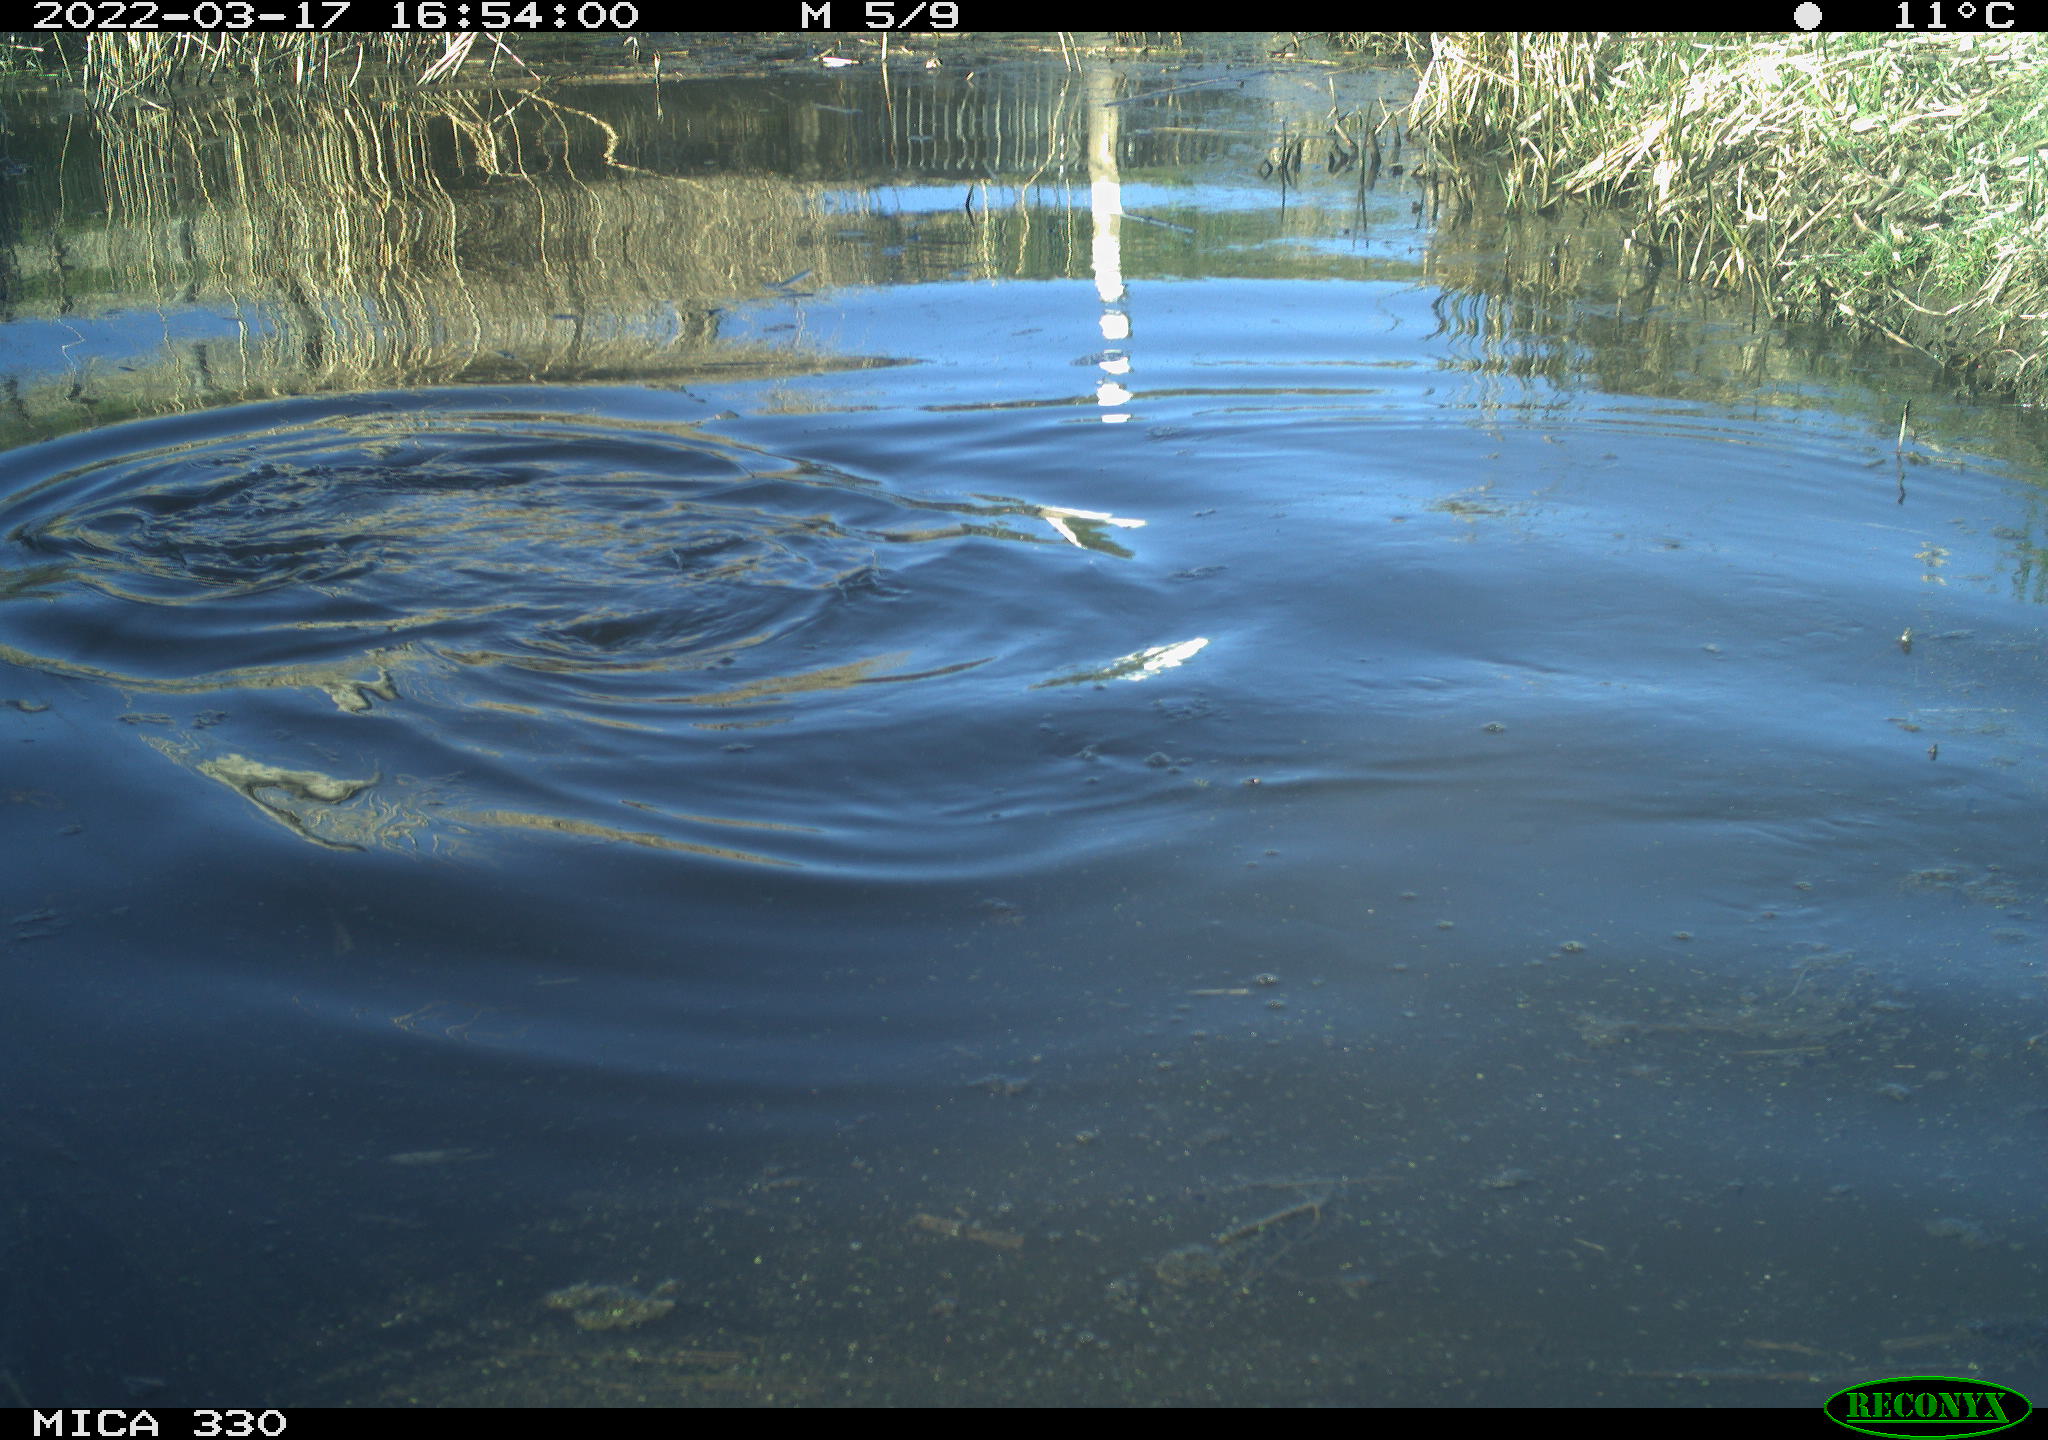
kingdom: Animalia
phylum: Chordata
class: Aves
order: Suliformes
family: Phalacrocoracidae
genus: Phalacrocorax
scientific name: Phalacrocorax carbo
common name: Great cormorant
